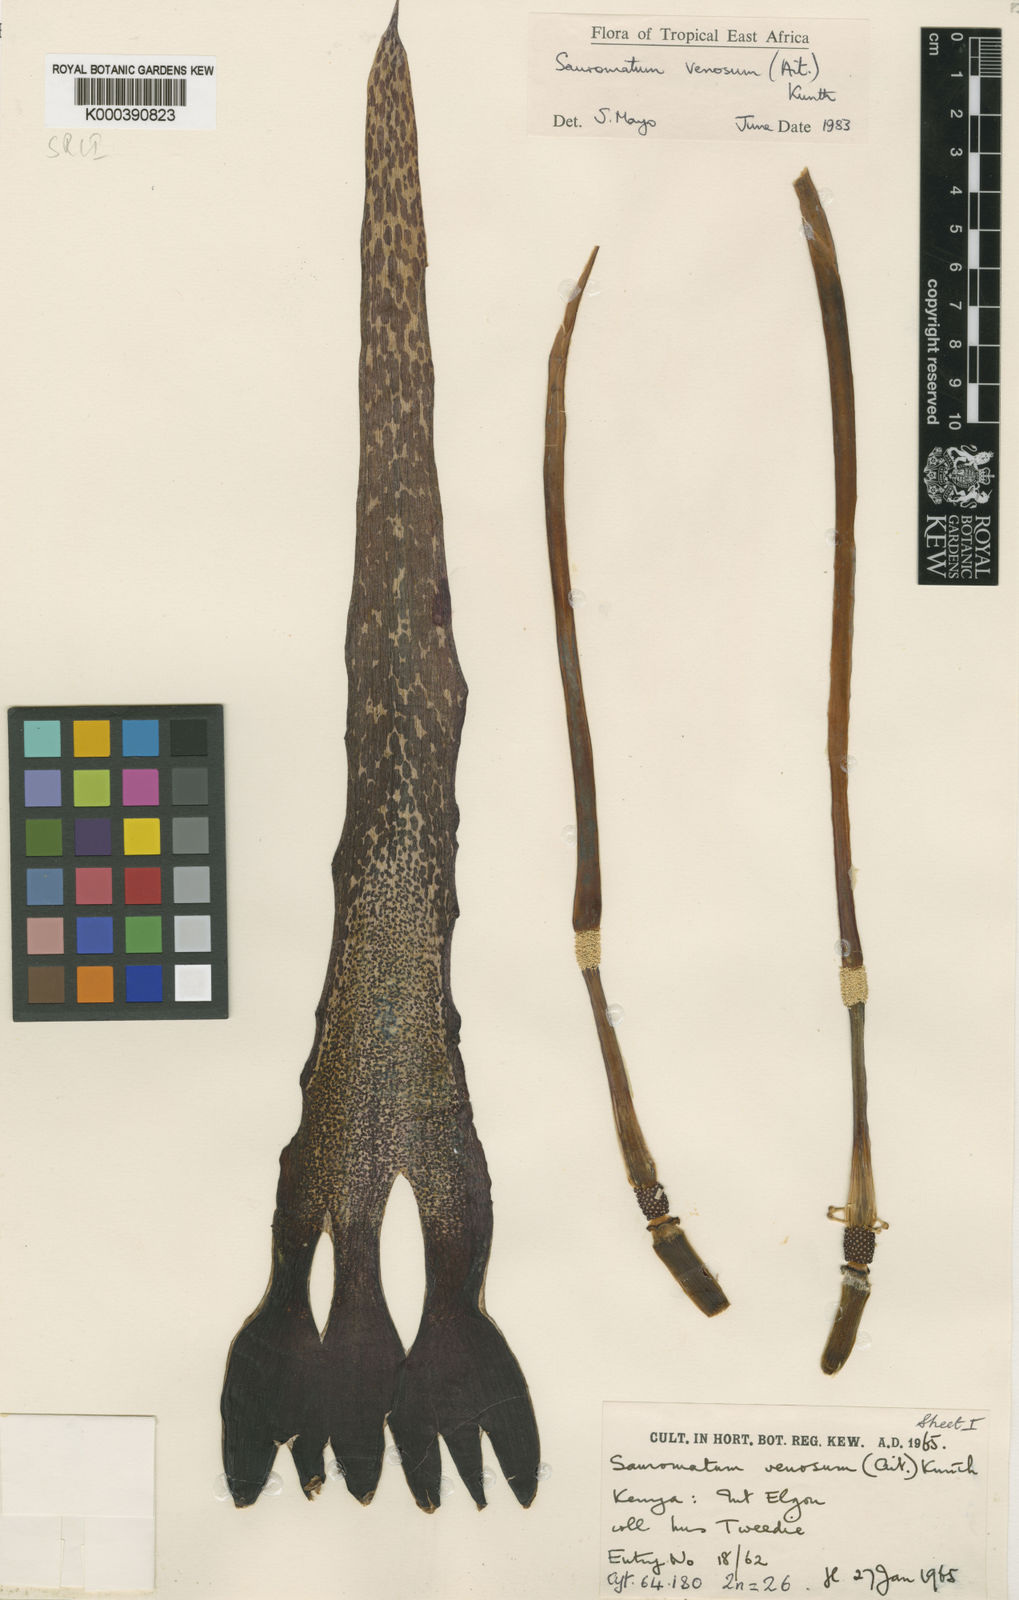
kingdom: Plantae
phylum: Tracheophyta
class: Liliopsida
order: Alismatales
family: Araceae
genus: Sauromatum
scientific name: Sauromatum venosum
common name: Voodoo lily
